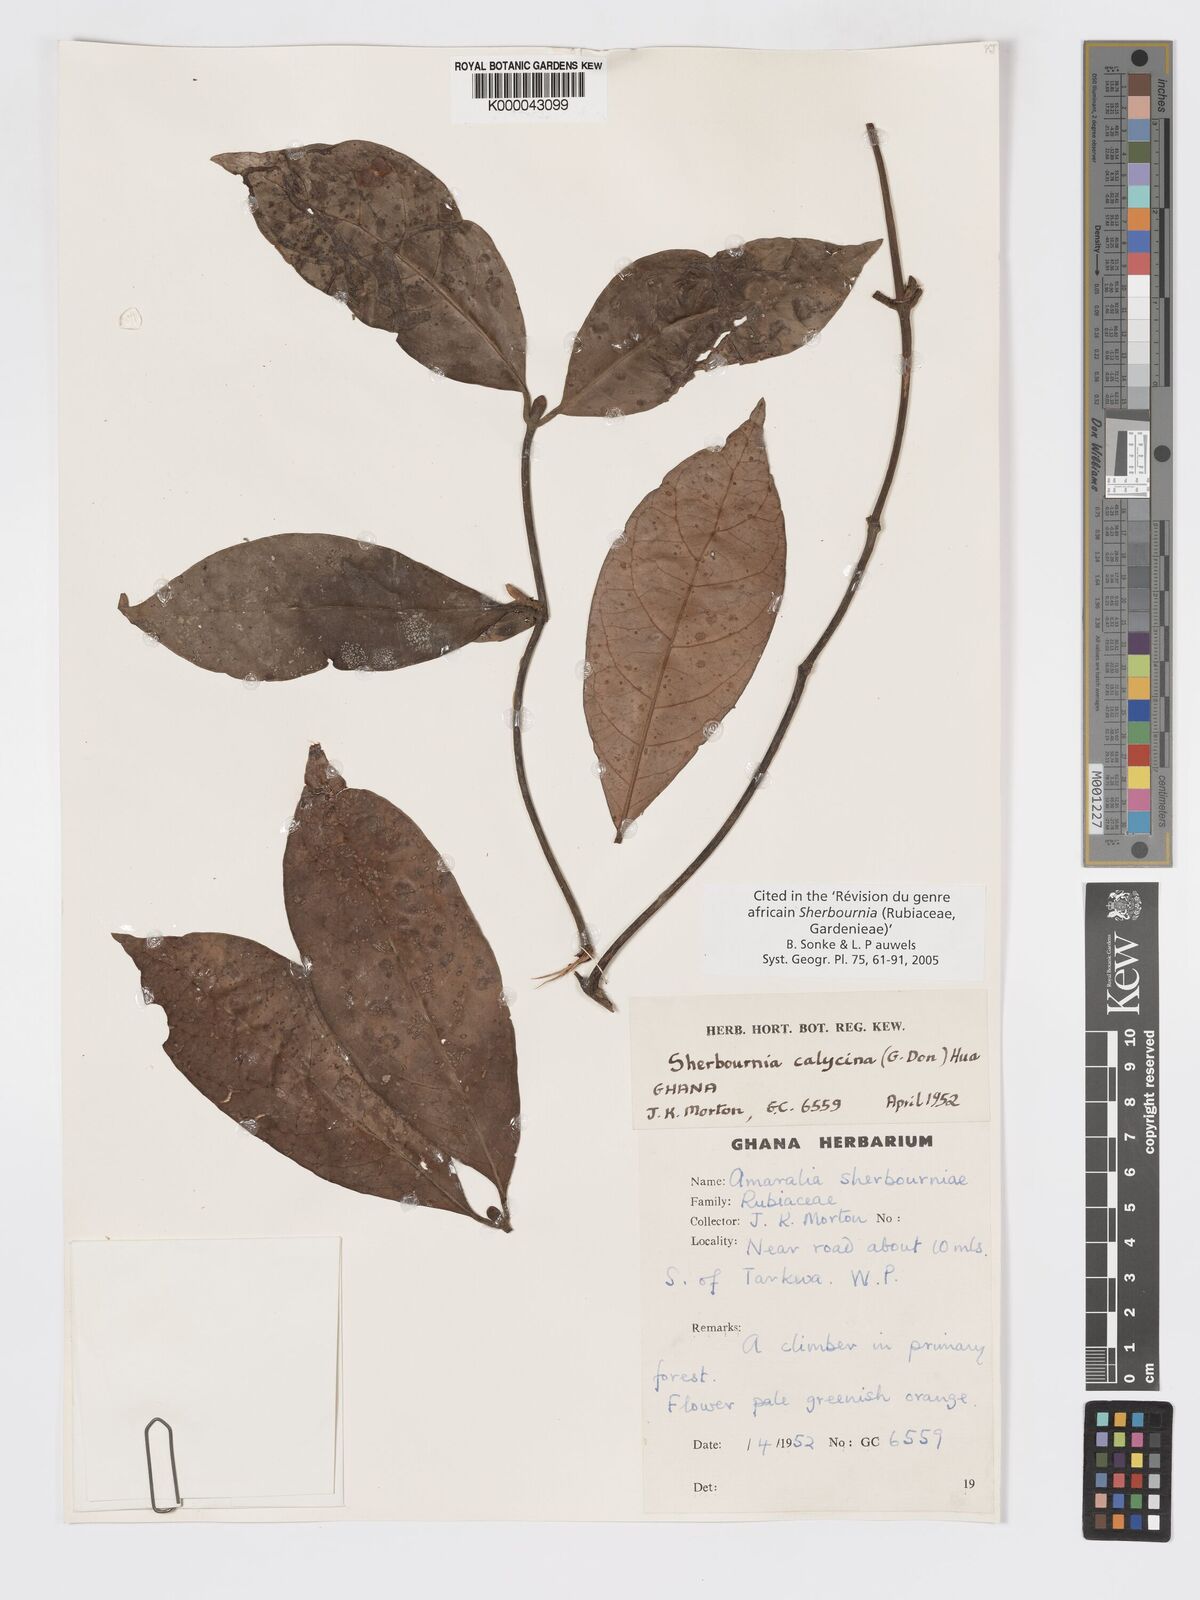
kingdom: Plantae
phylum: Tracheophyta
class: Magnoliopsida
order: Gentianales
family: Rubiaceae
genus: Sherbournia
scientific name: Sherbournia calycina
